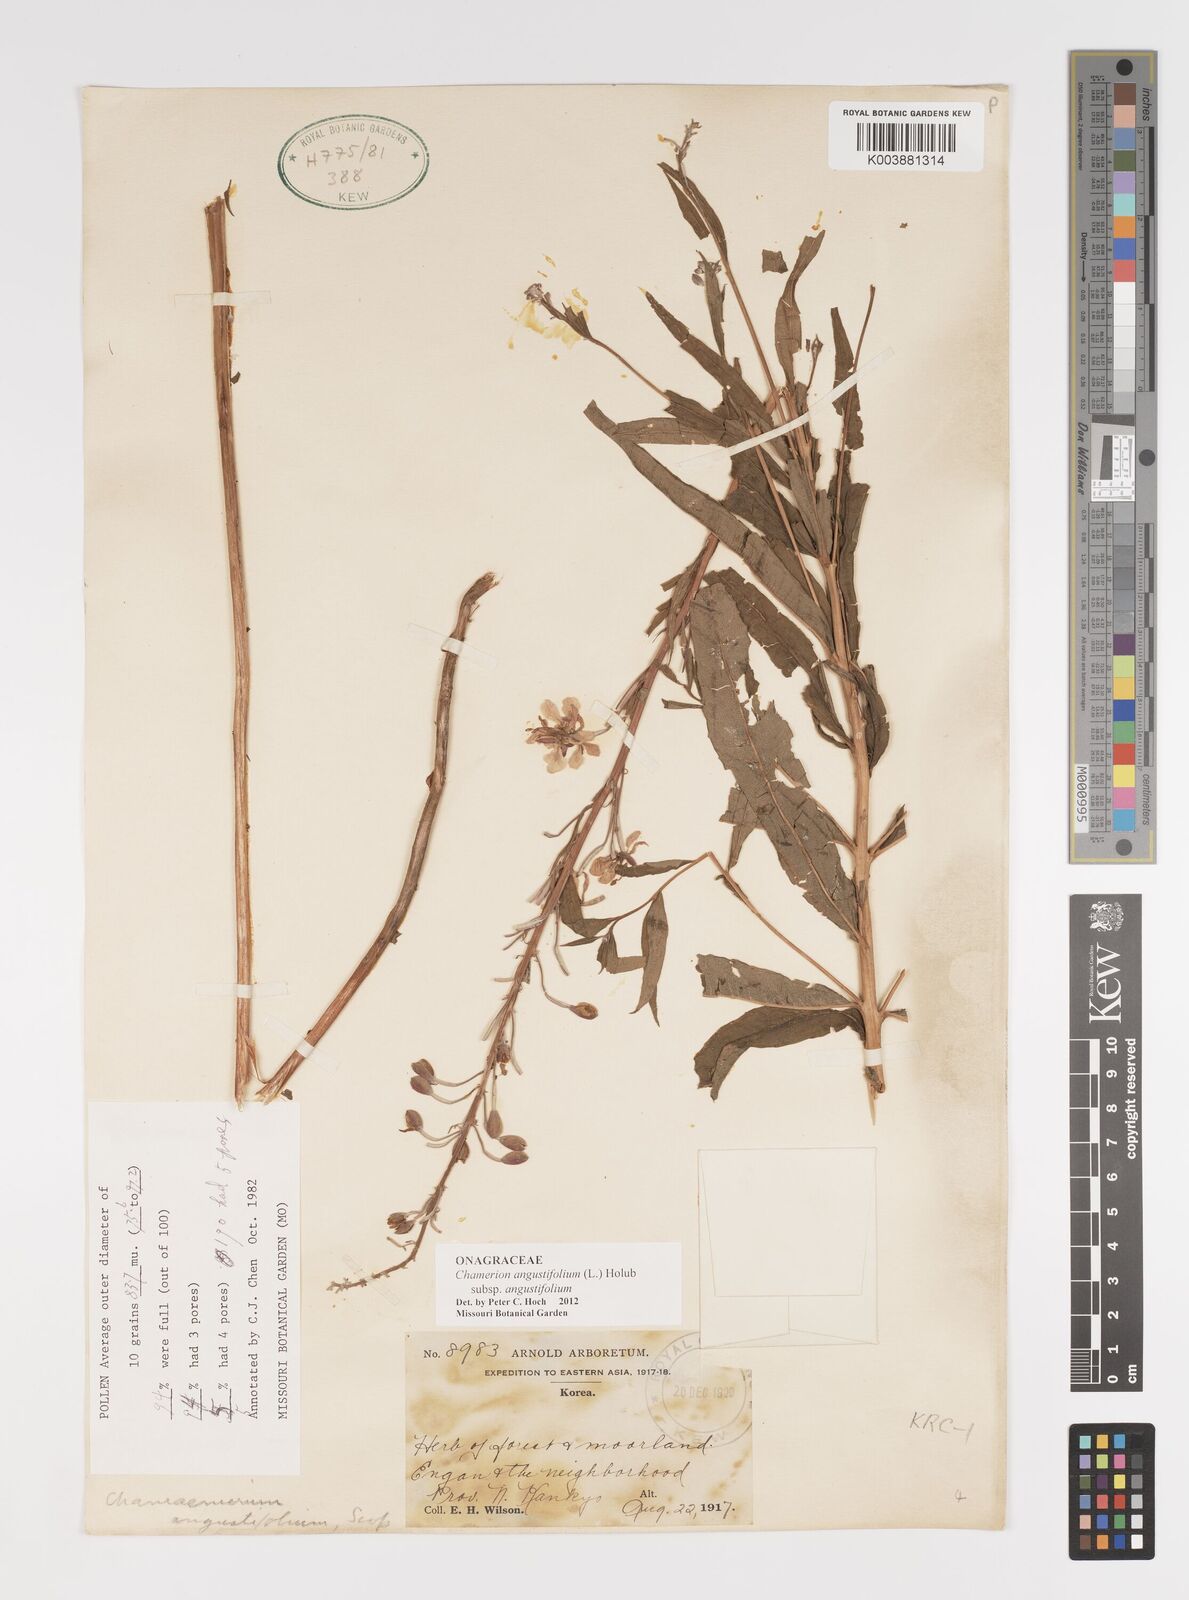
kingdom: Plantae
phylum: Tracheophyta
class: Magnoliopsida
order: Myrtales
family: Onagraceae
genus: Chamaenerion
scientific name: Chamaenerion angustifolium
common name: Fireweed
